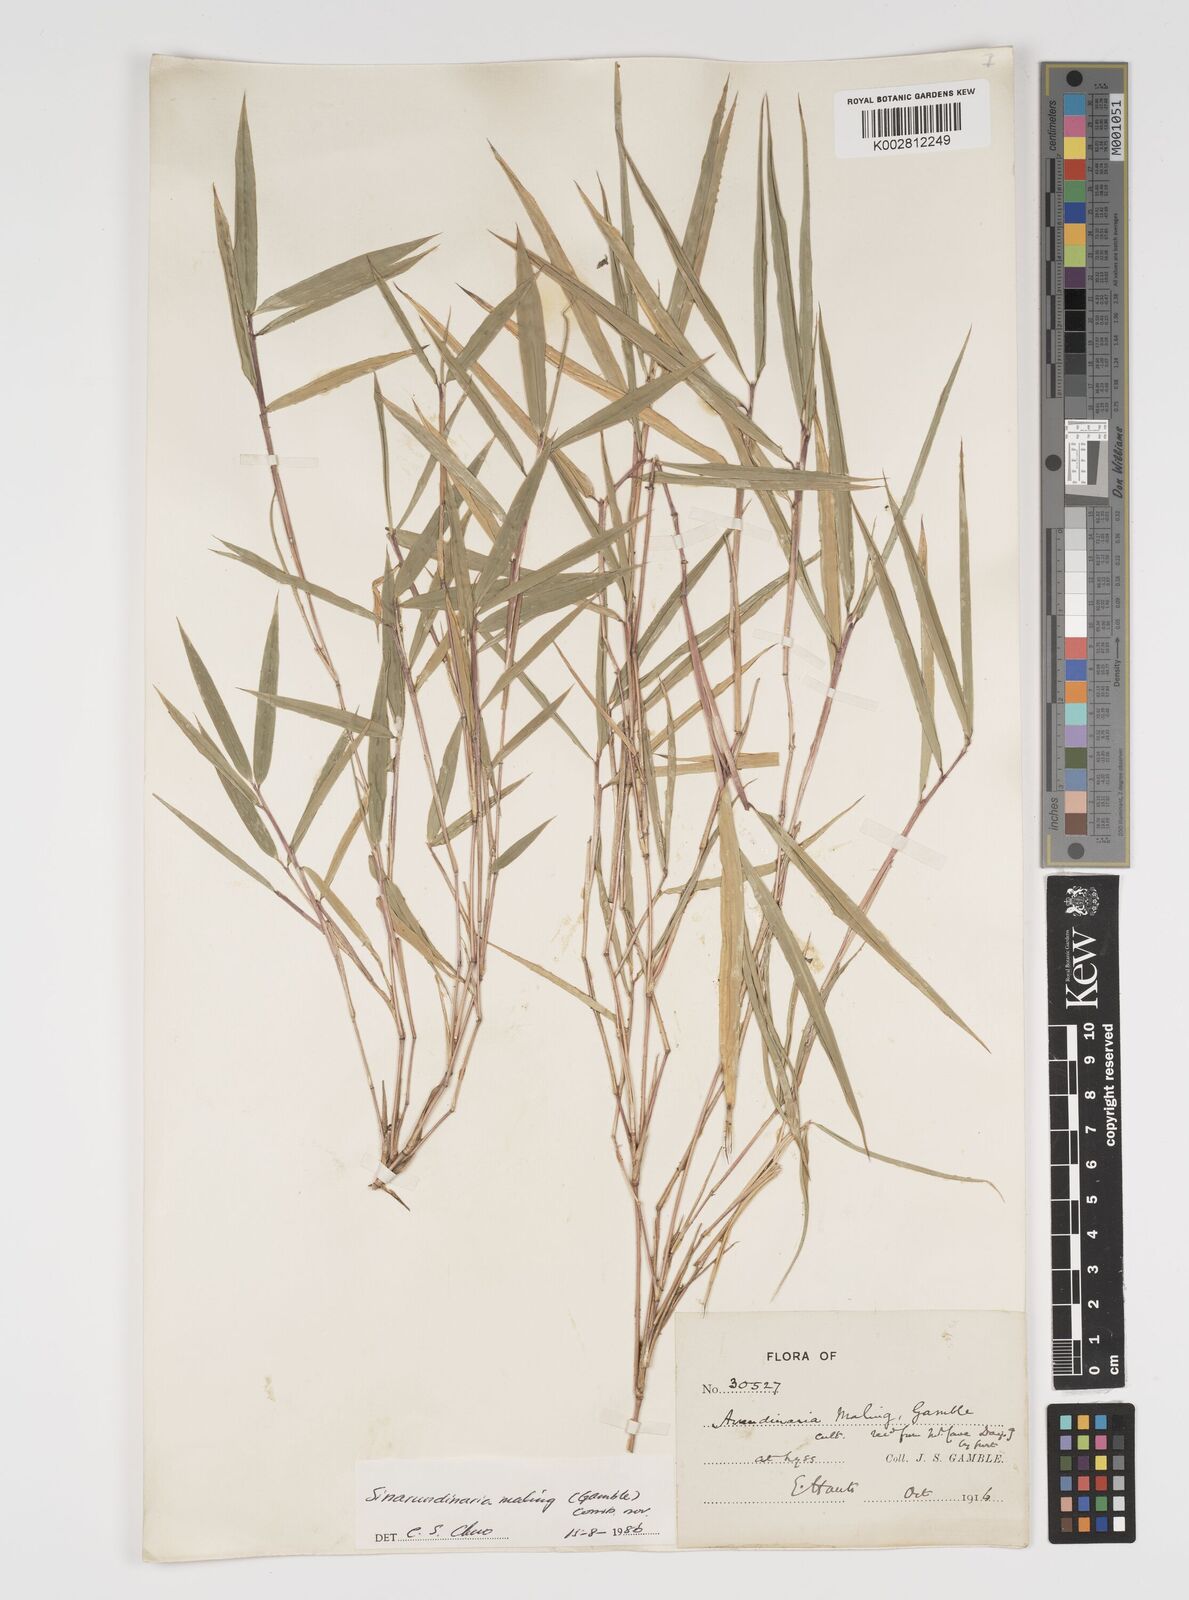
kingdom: Plantae
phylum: Tracheophyta
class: Liliopsida
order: Poales
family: Poaceae
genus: Yushania
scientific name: Yushania maling
